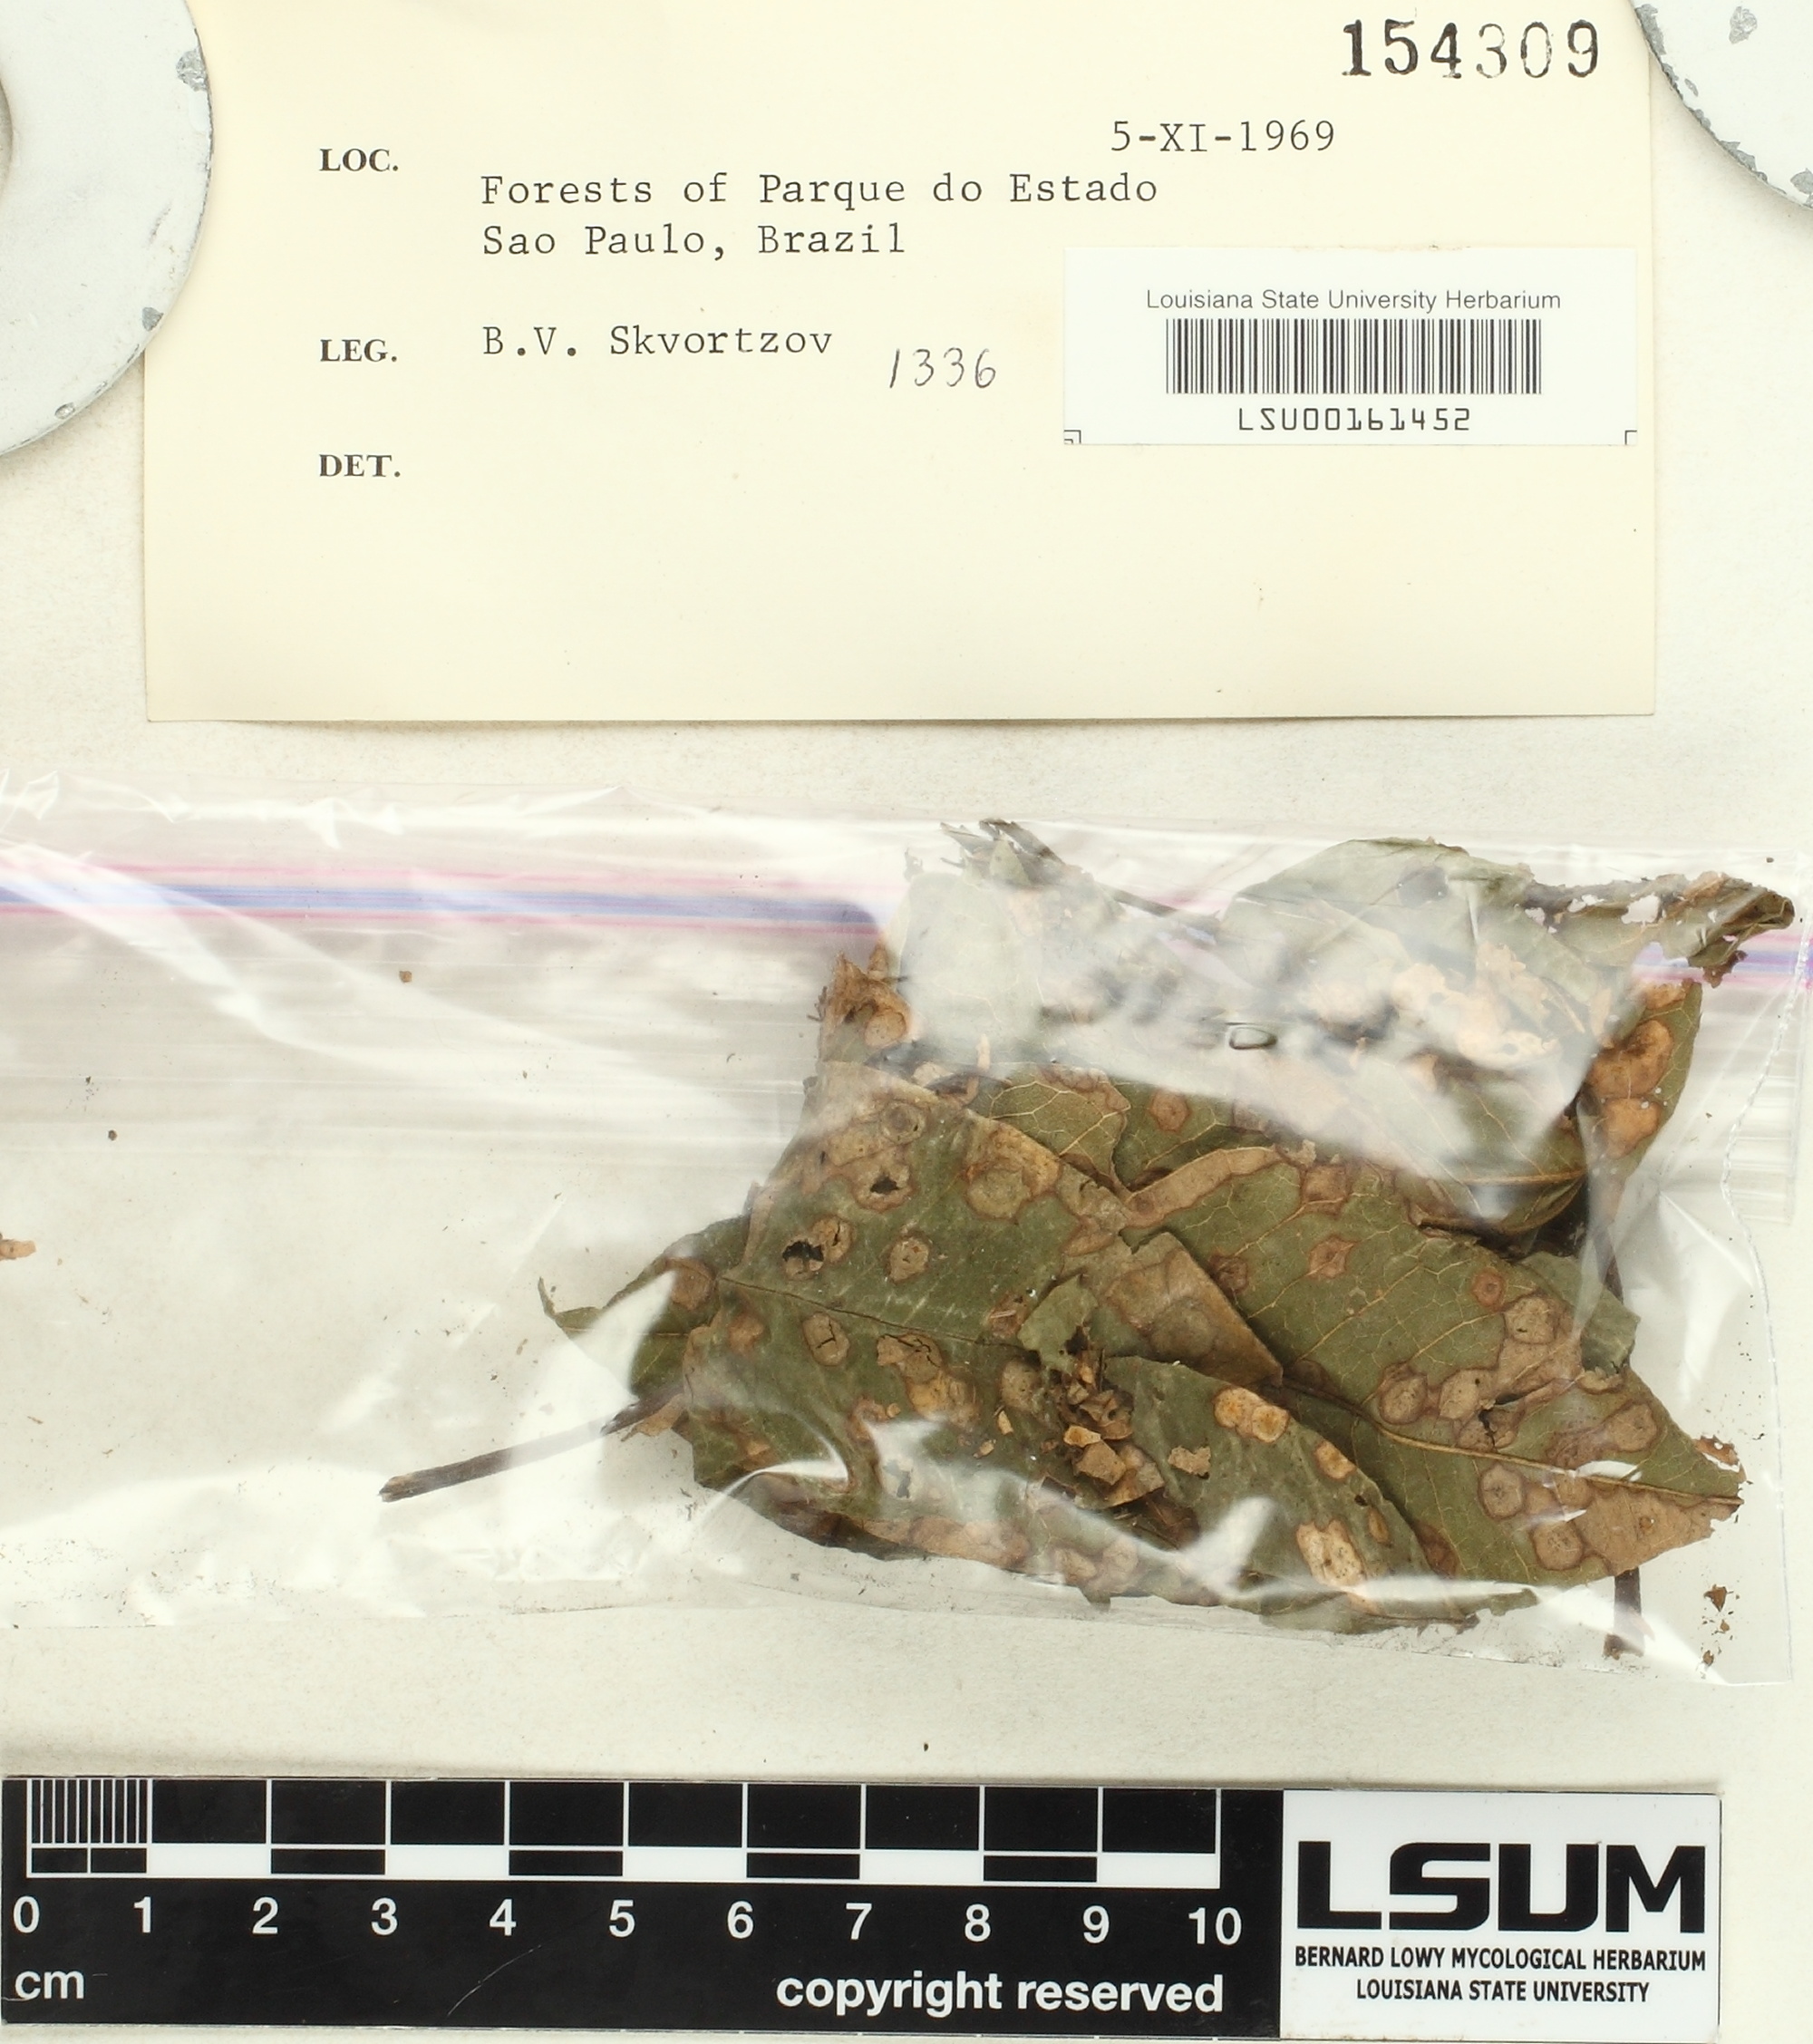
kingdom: Fungi
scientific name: Fungi
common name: Fungi
